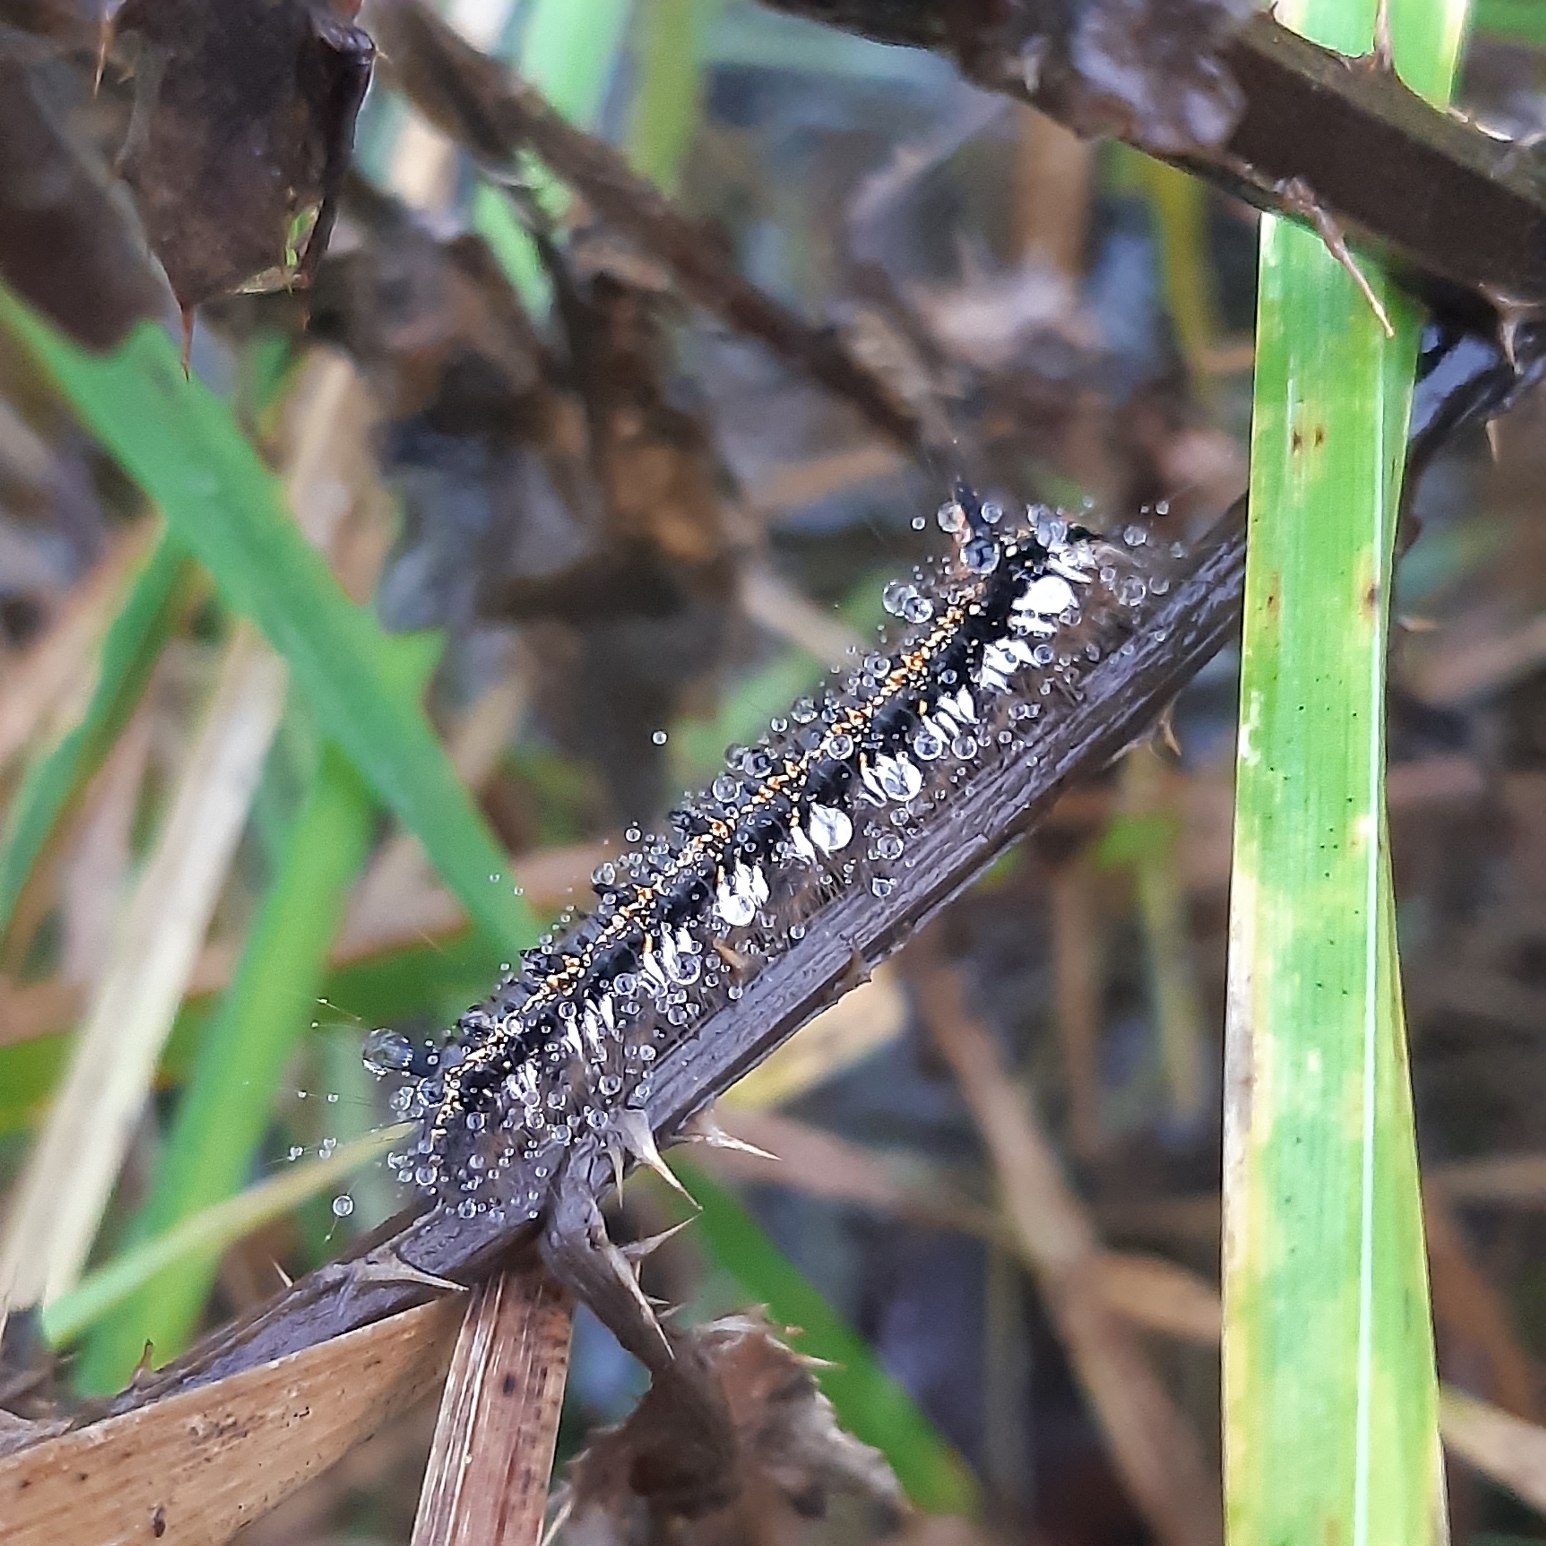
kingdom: Animalia
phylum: Arthropoda
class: Insecta
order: Lepidoptera
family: Lasiocampidae
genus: Euthrix
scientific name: Euthrix potatoria
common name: Græsspinder
